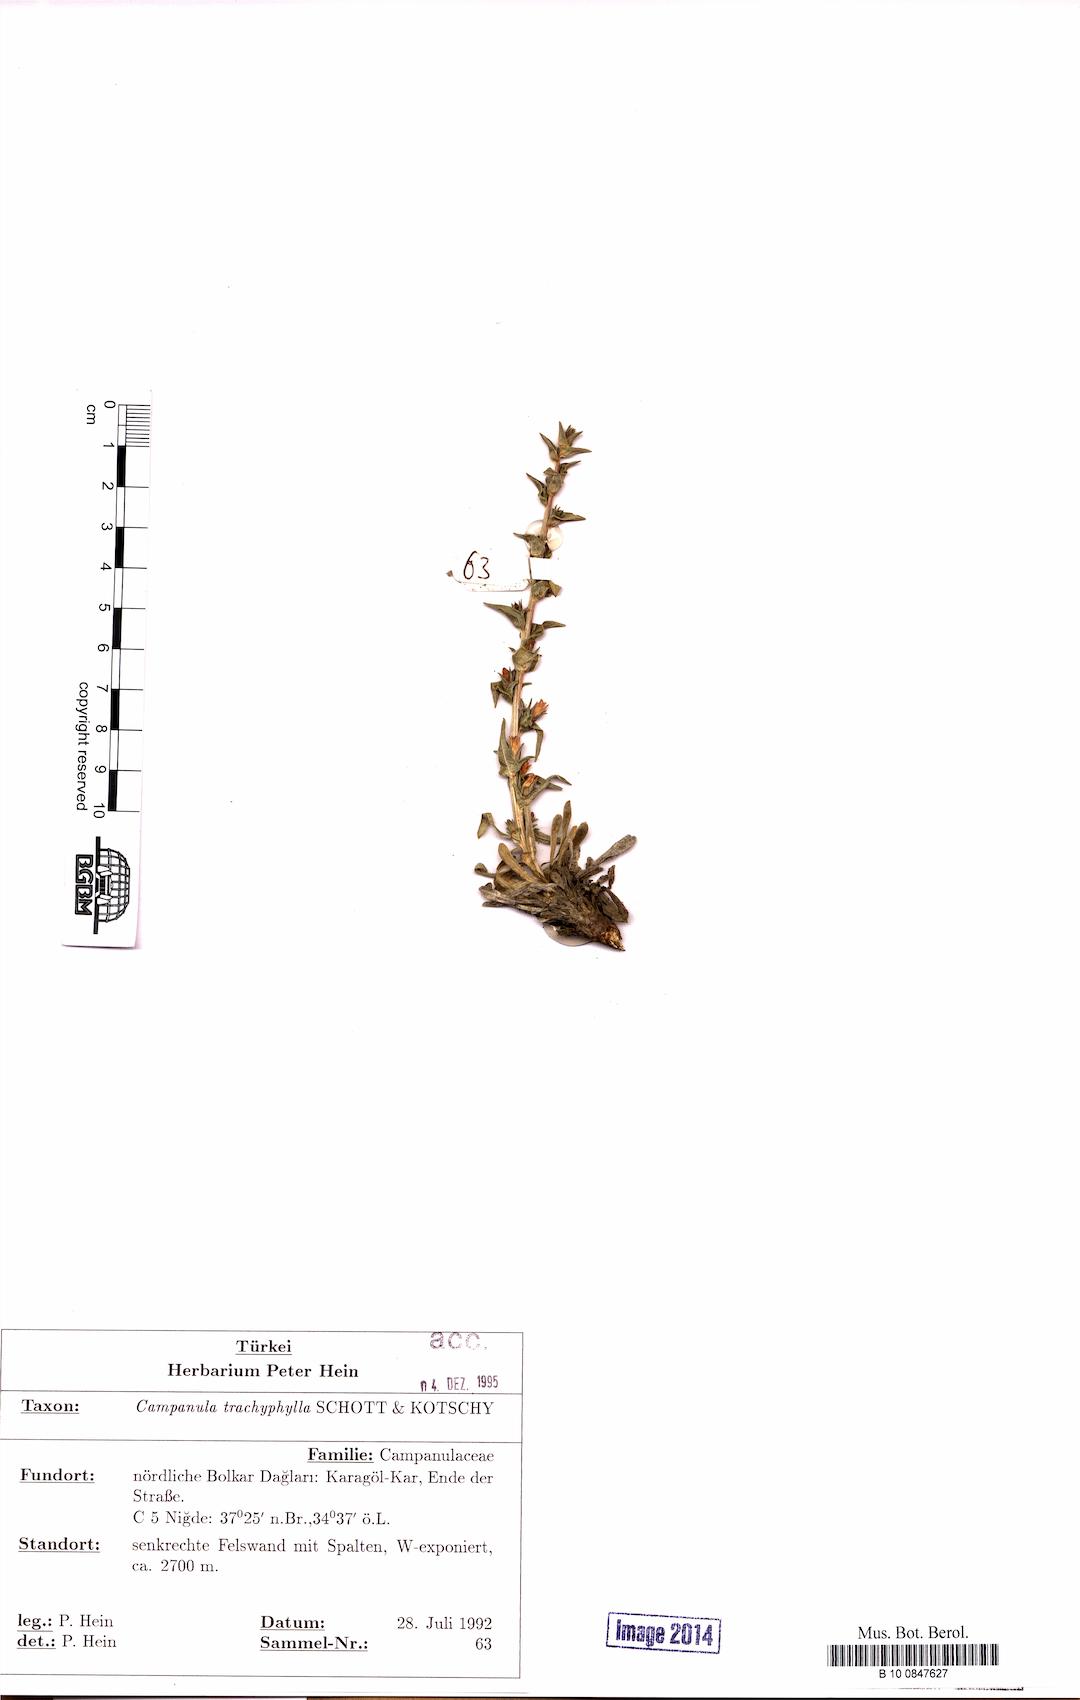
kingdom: Plantae
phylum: Tracheophyta
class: Magnoliopsida
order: Asterales
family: Campanulaceae
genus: Campanula
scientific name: Campanula trachyphylla
